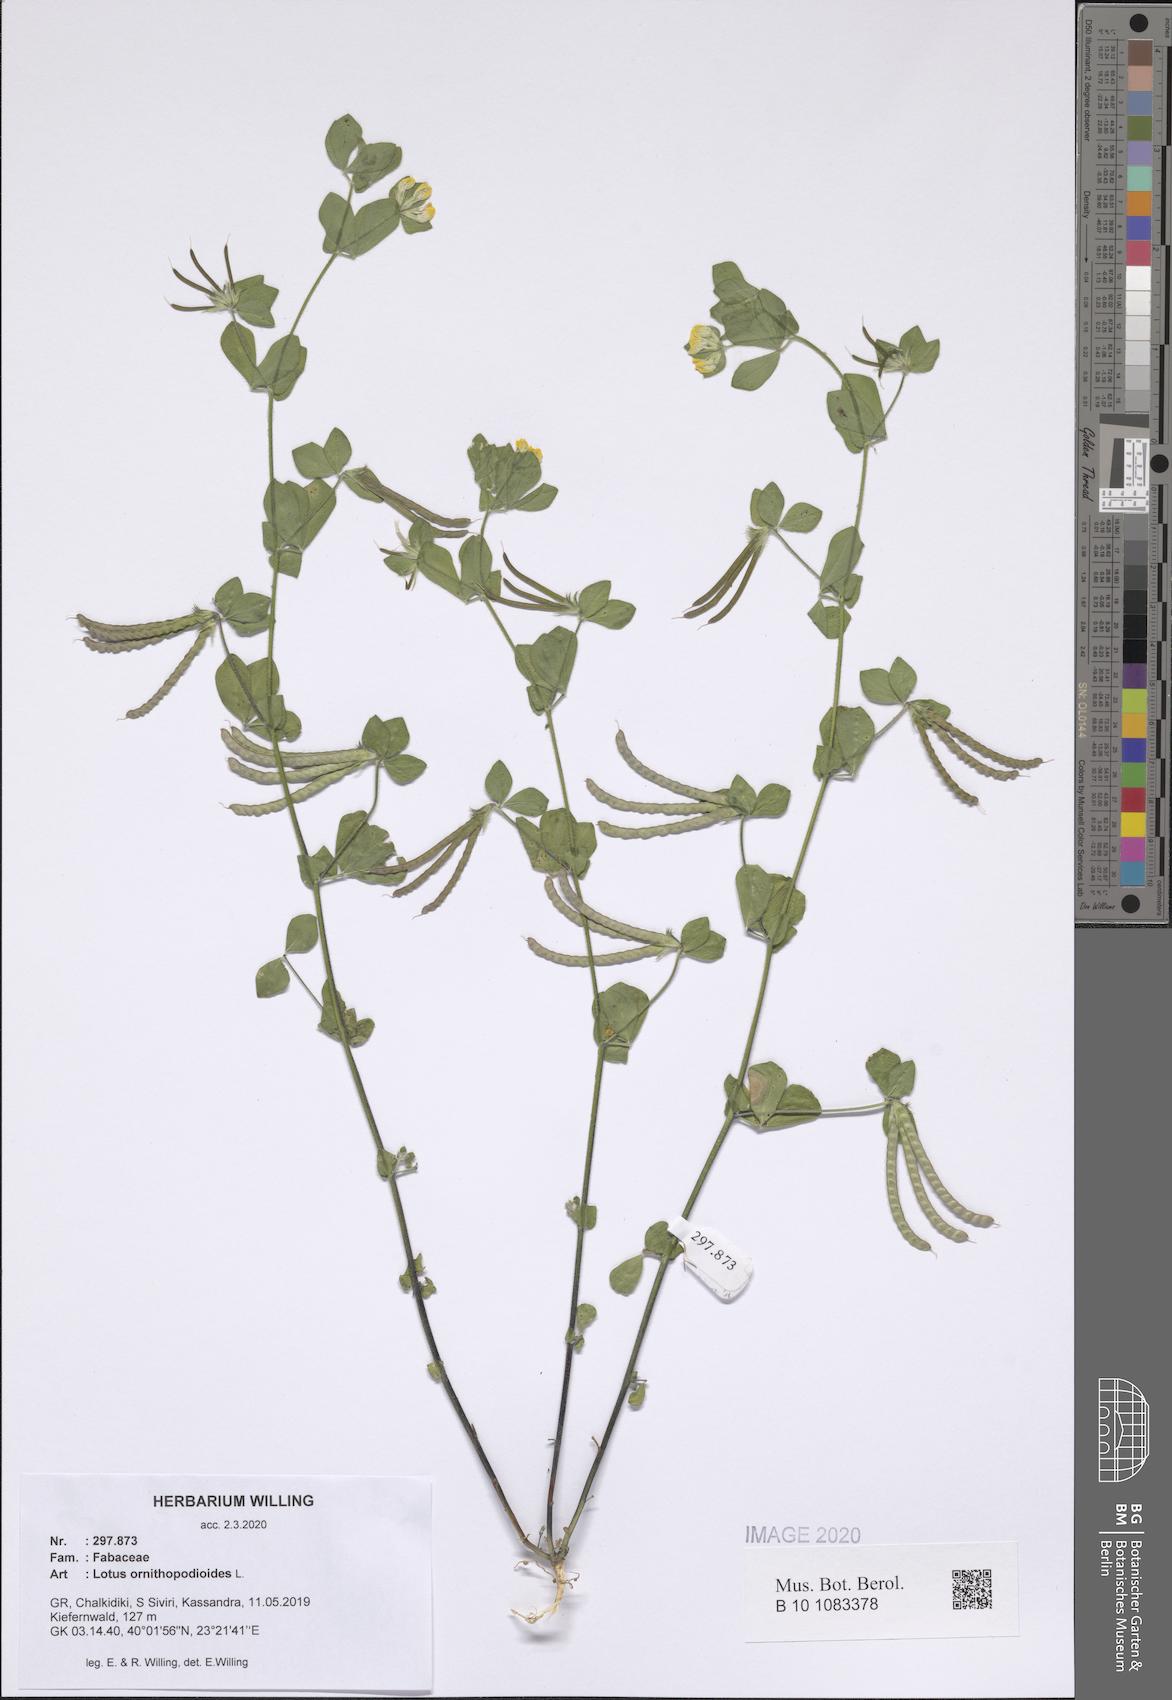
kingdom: Plantae
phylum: Tracheophyta
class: Magnoliopsida
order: Fabales
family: Fabaceae
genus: Lotus
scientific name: Lotus ornithopodioides
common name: Southern bird's-foot trefoil
